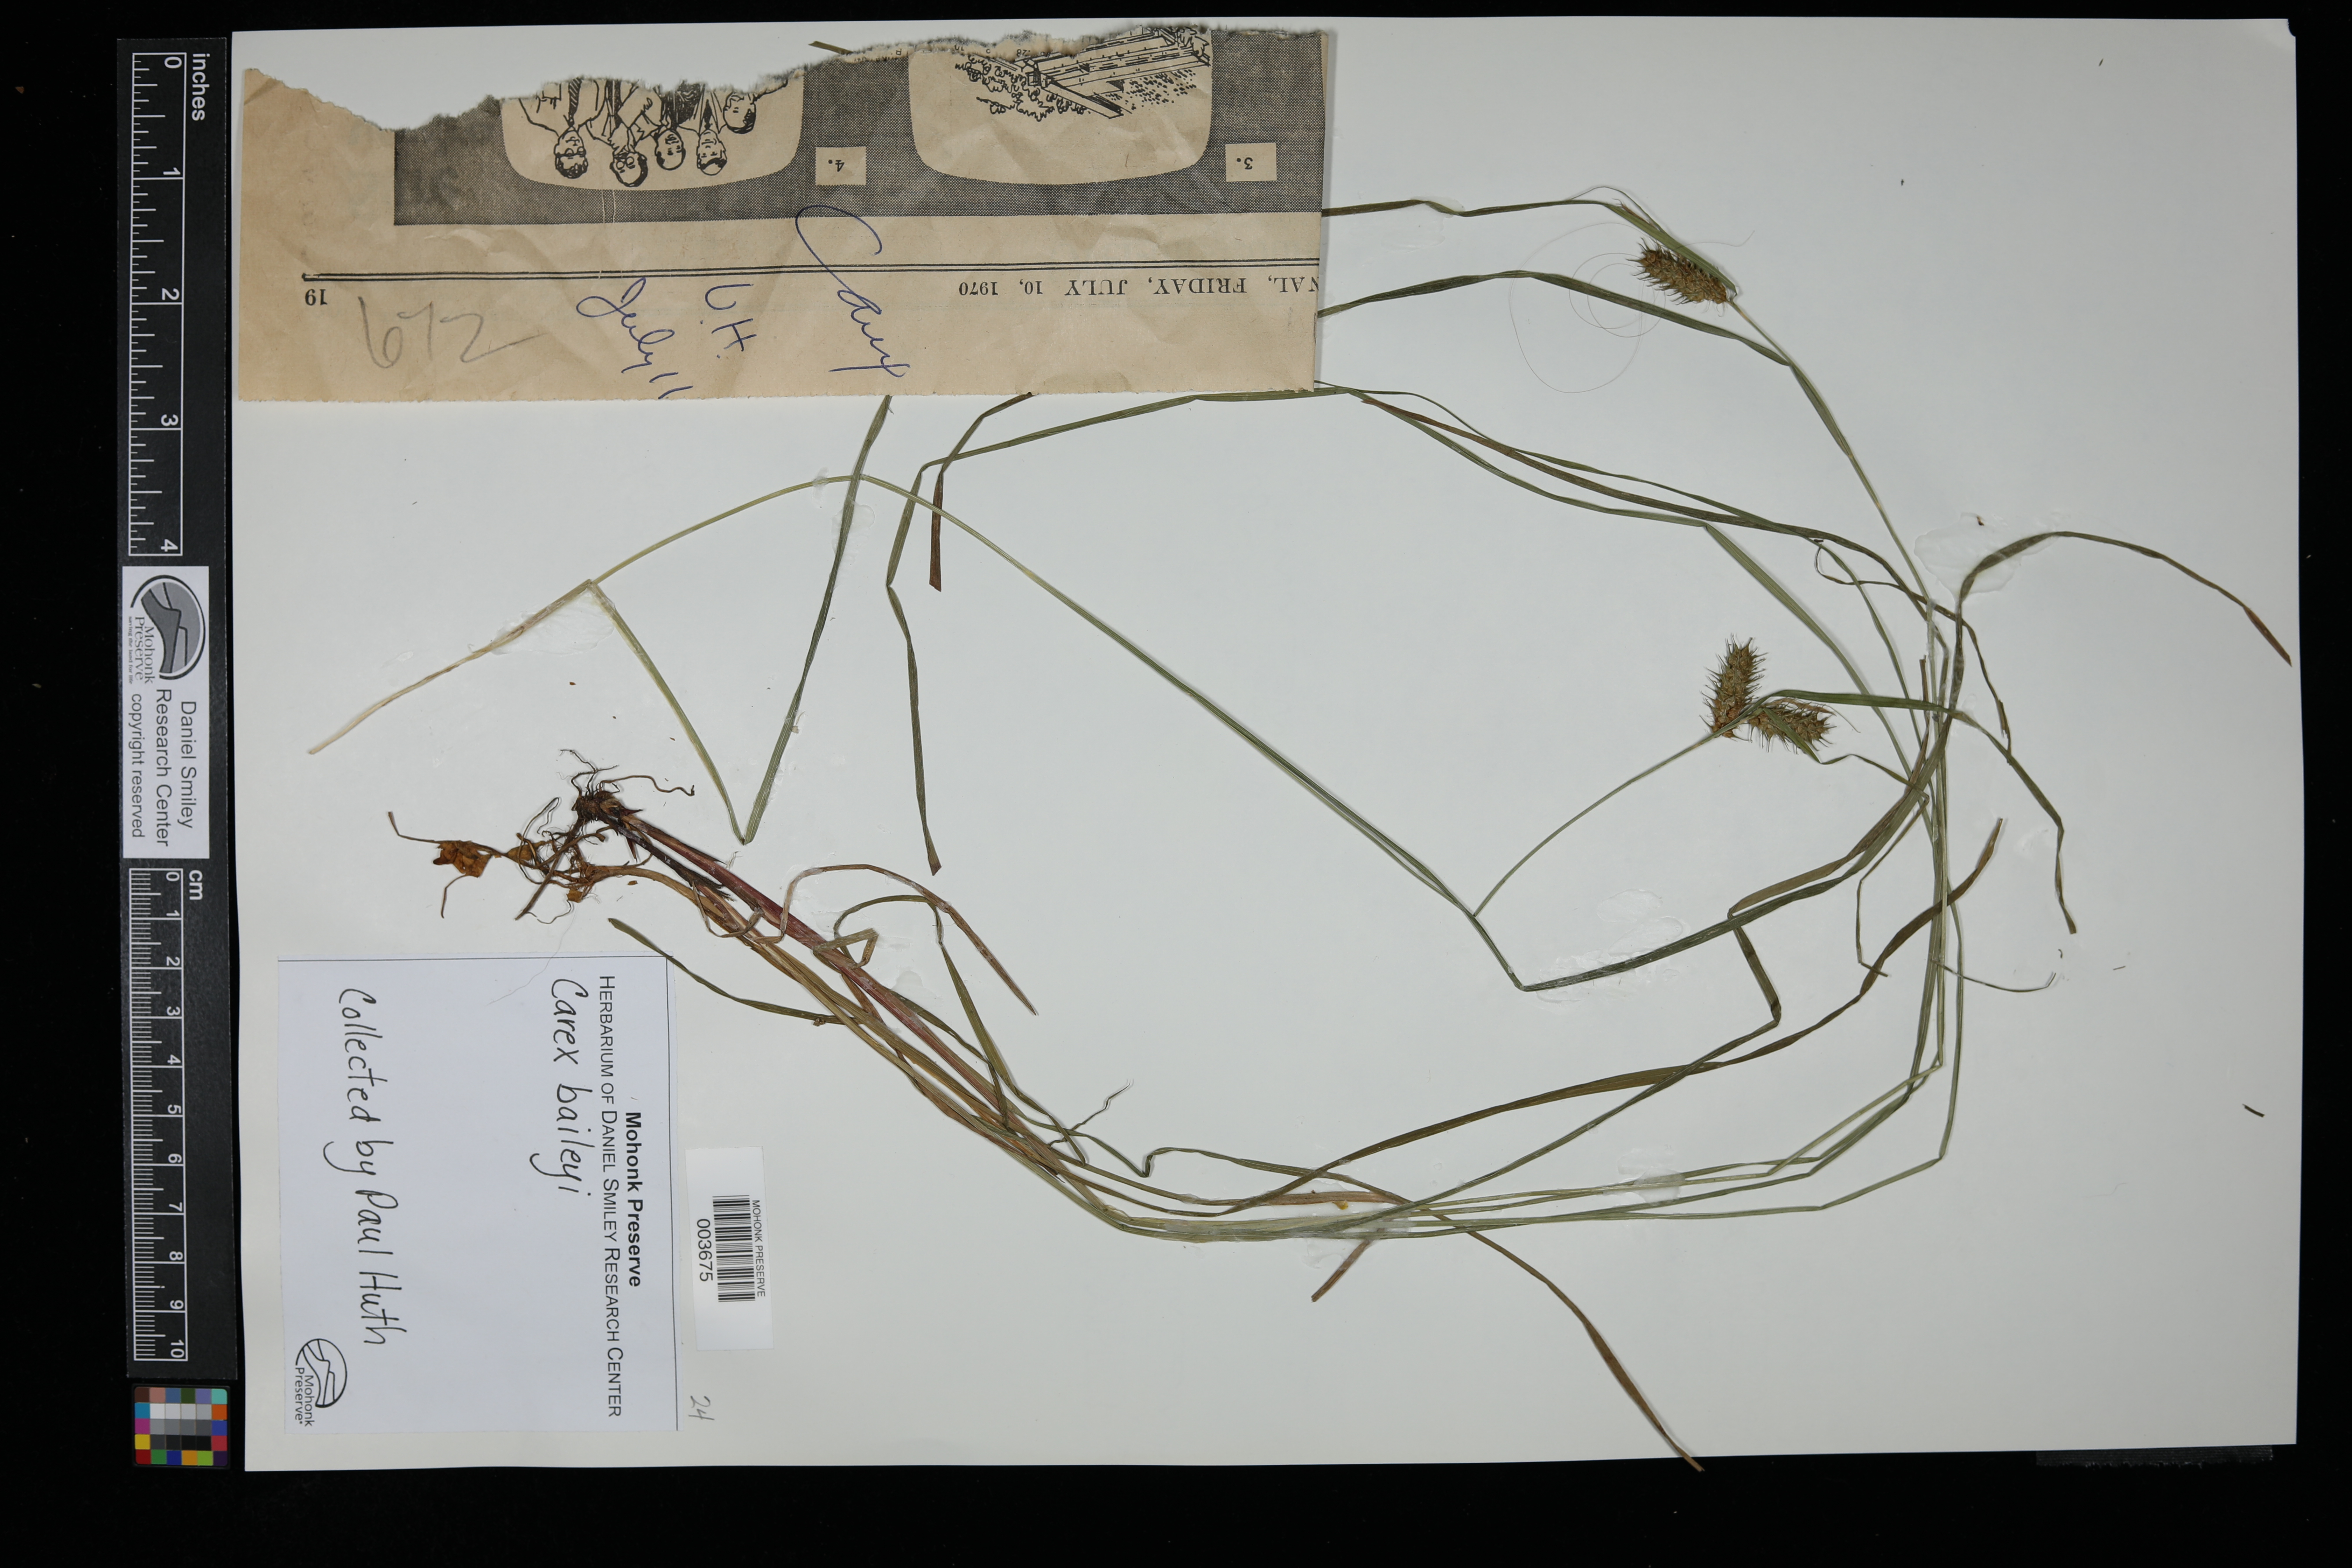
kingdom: Plantae
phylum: Tracheophyta
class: Liliopsida
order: Poales
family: Cyperaceae
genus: Carex
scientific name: Carex baileyi
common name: Bailey's sedge
